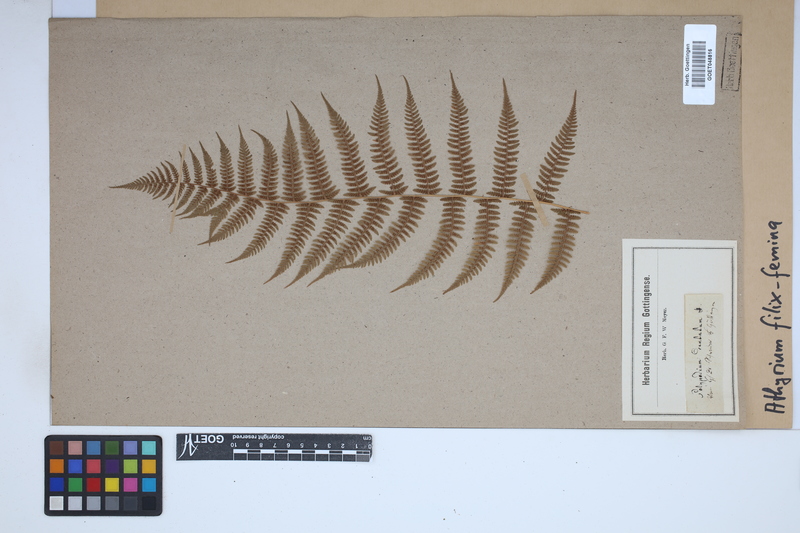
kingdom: Plantae
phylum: Tracheophyta
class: Polypodiopsida
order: Polypodiales
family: Athyriaceae
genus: Athyrium
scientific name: Athyrium filix-femina
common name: Lady fern
